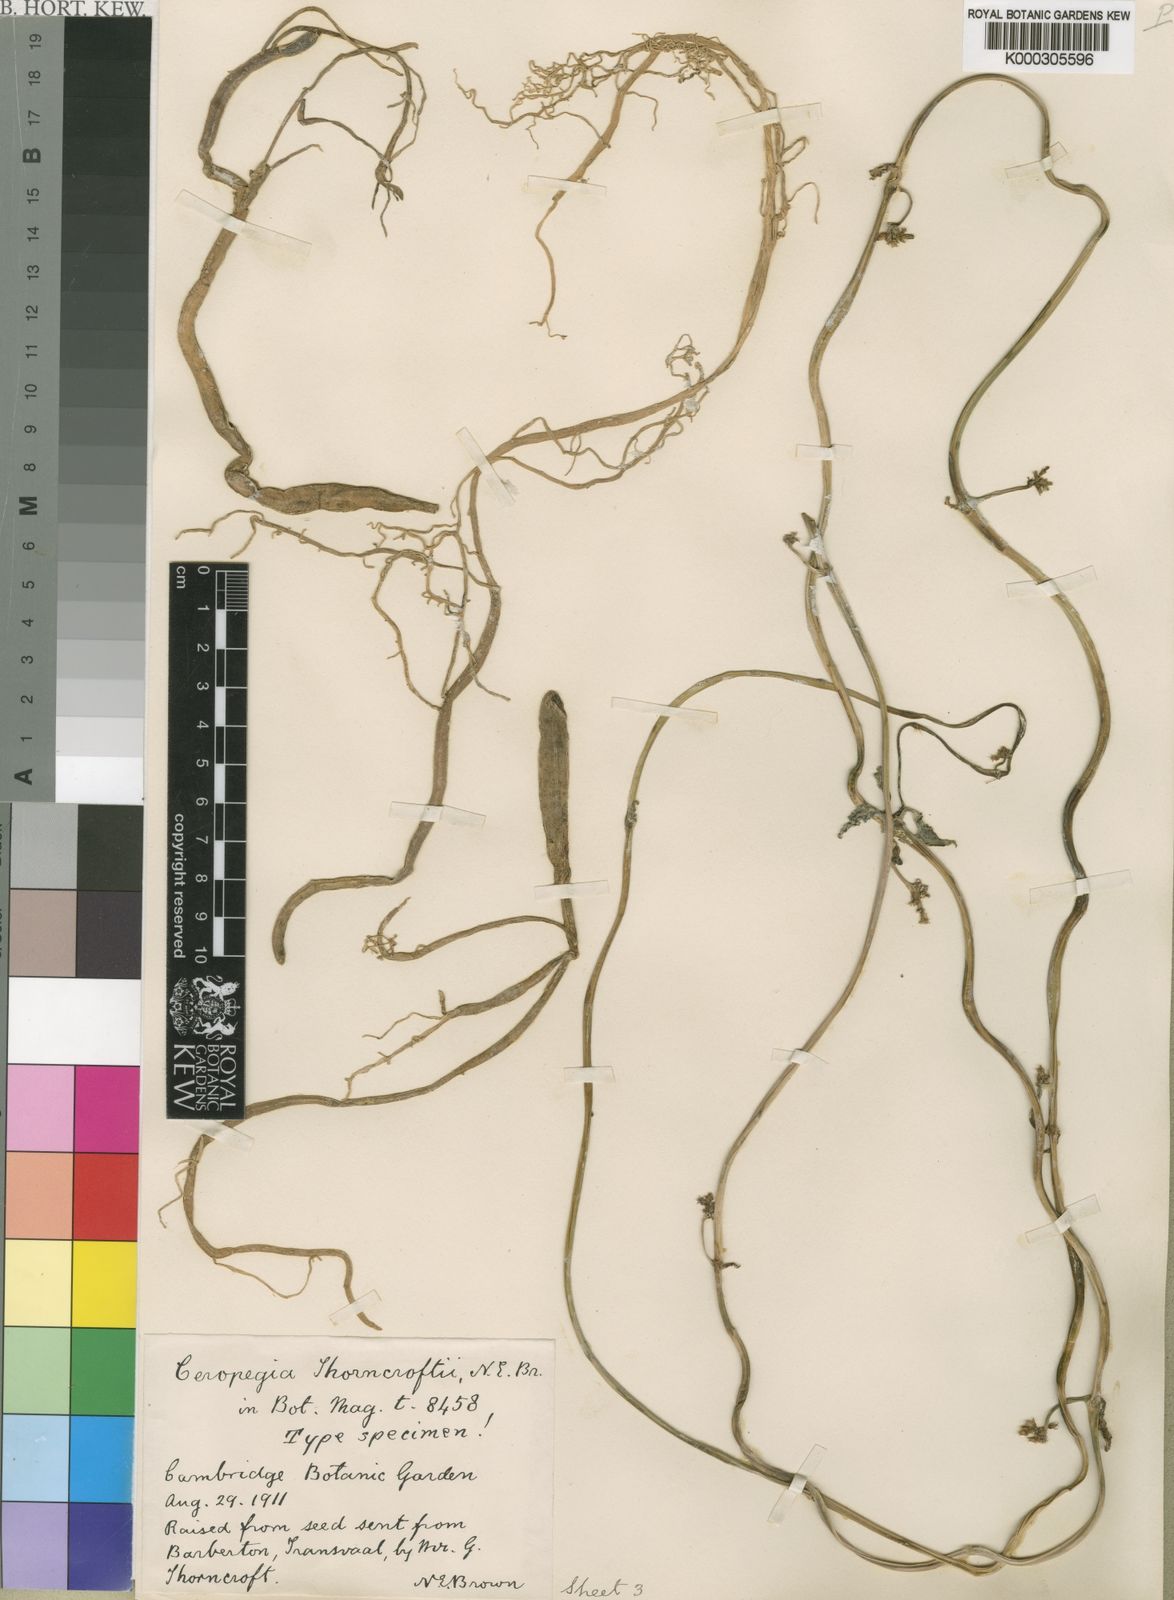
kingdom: Plantae
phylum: Tracheophyta
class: Magnoliopsida
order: Gentianales
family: Apocynaceae
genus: Ceropegia
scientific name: Ceropegia brachyceras
